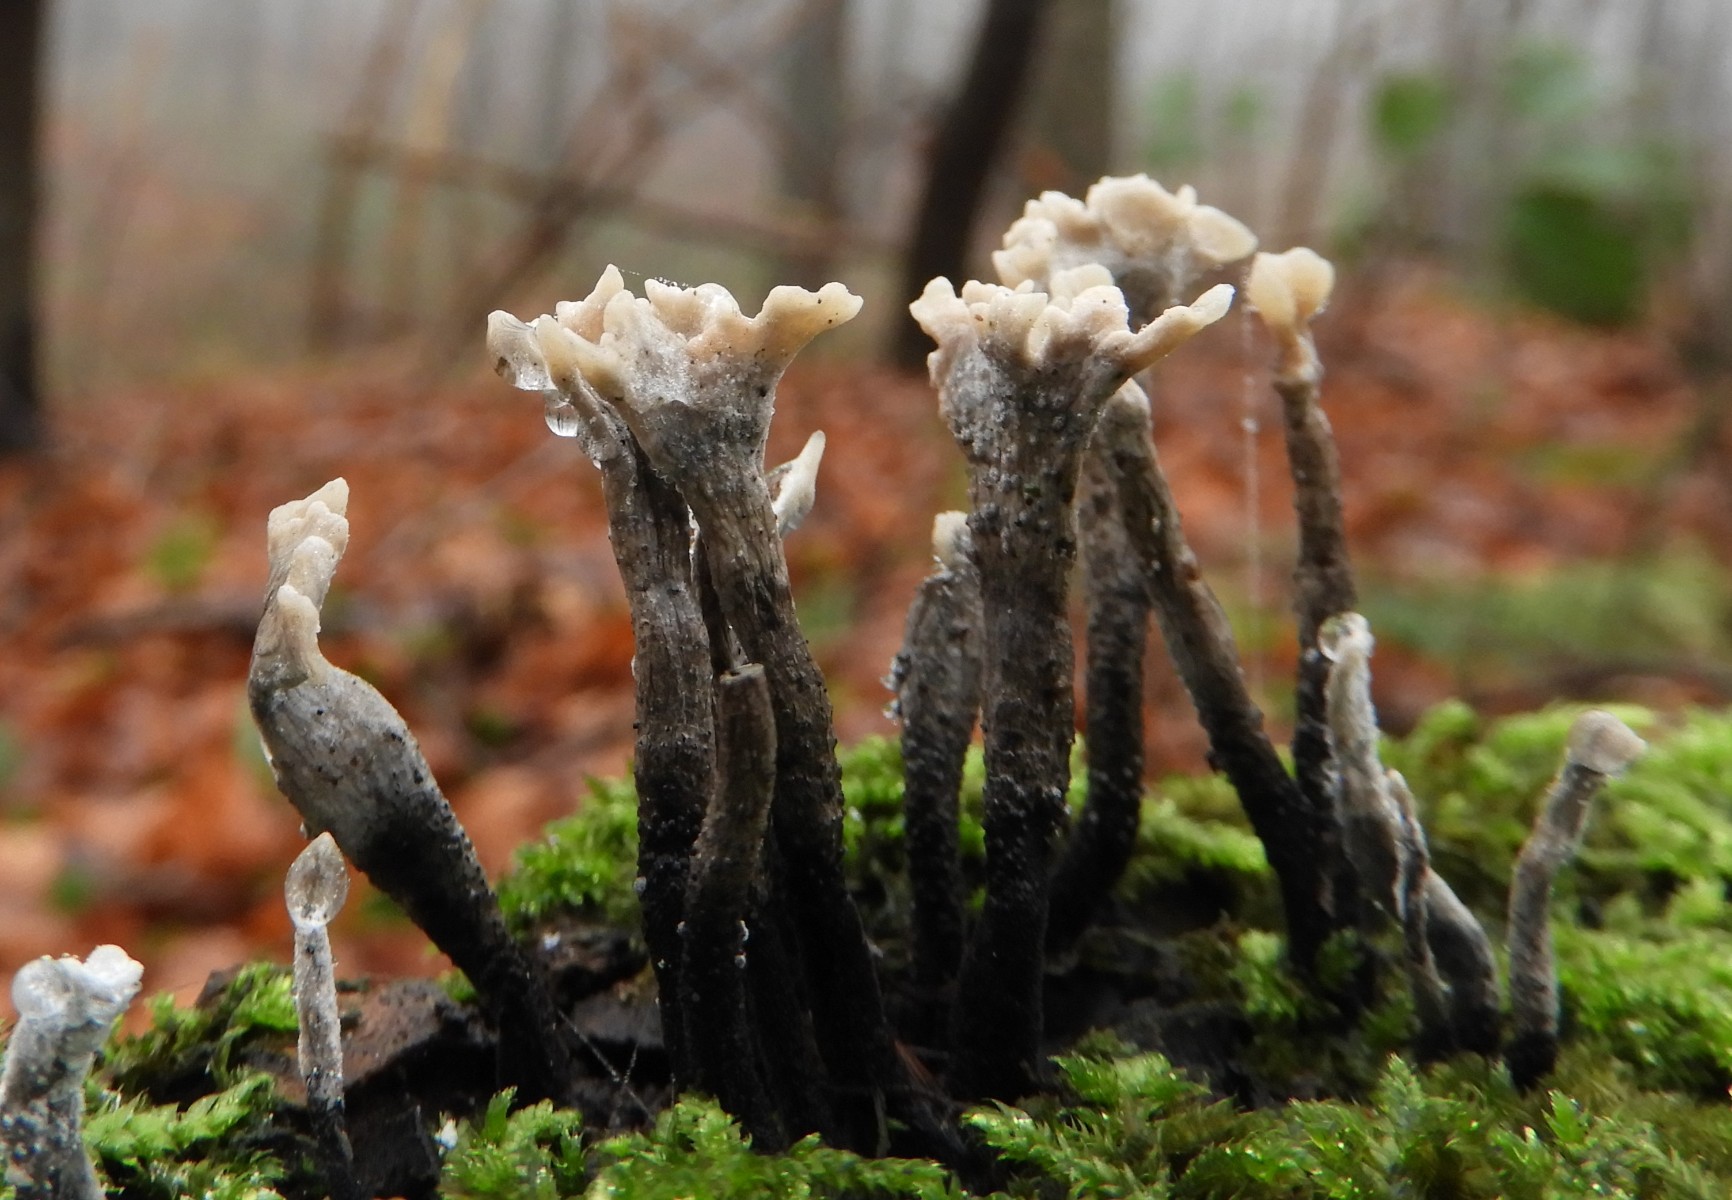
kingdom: Fungi
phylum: Ascomycota
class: Sordariomycetes
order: Xylariales
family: Xylariaceae
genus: Xylaria
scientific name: Xylaria hypoxylon
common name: grenet stødsvamp
